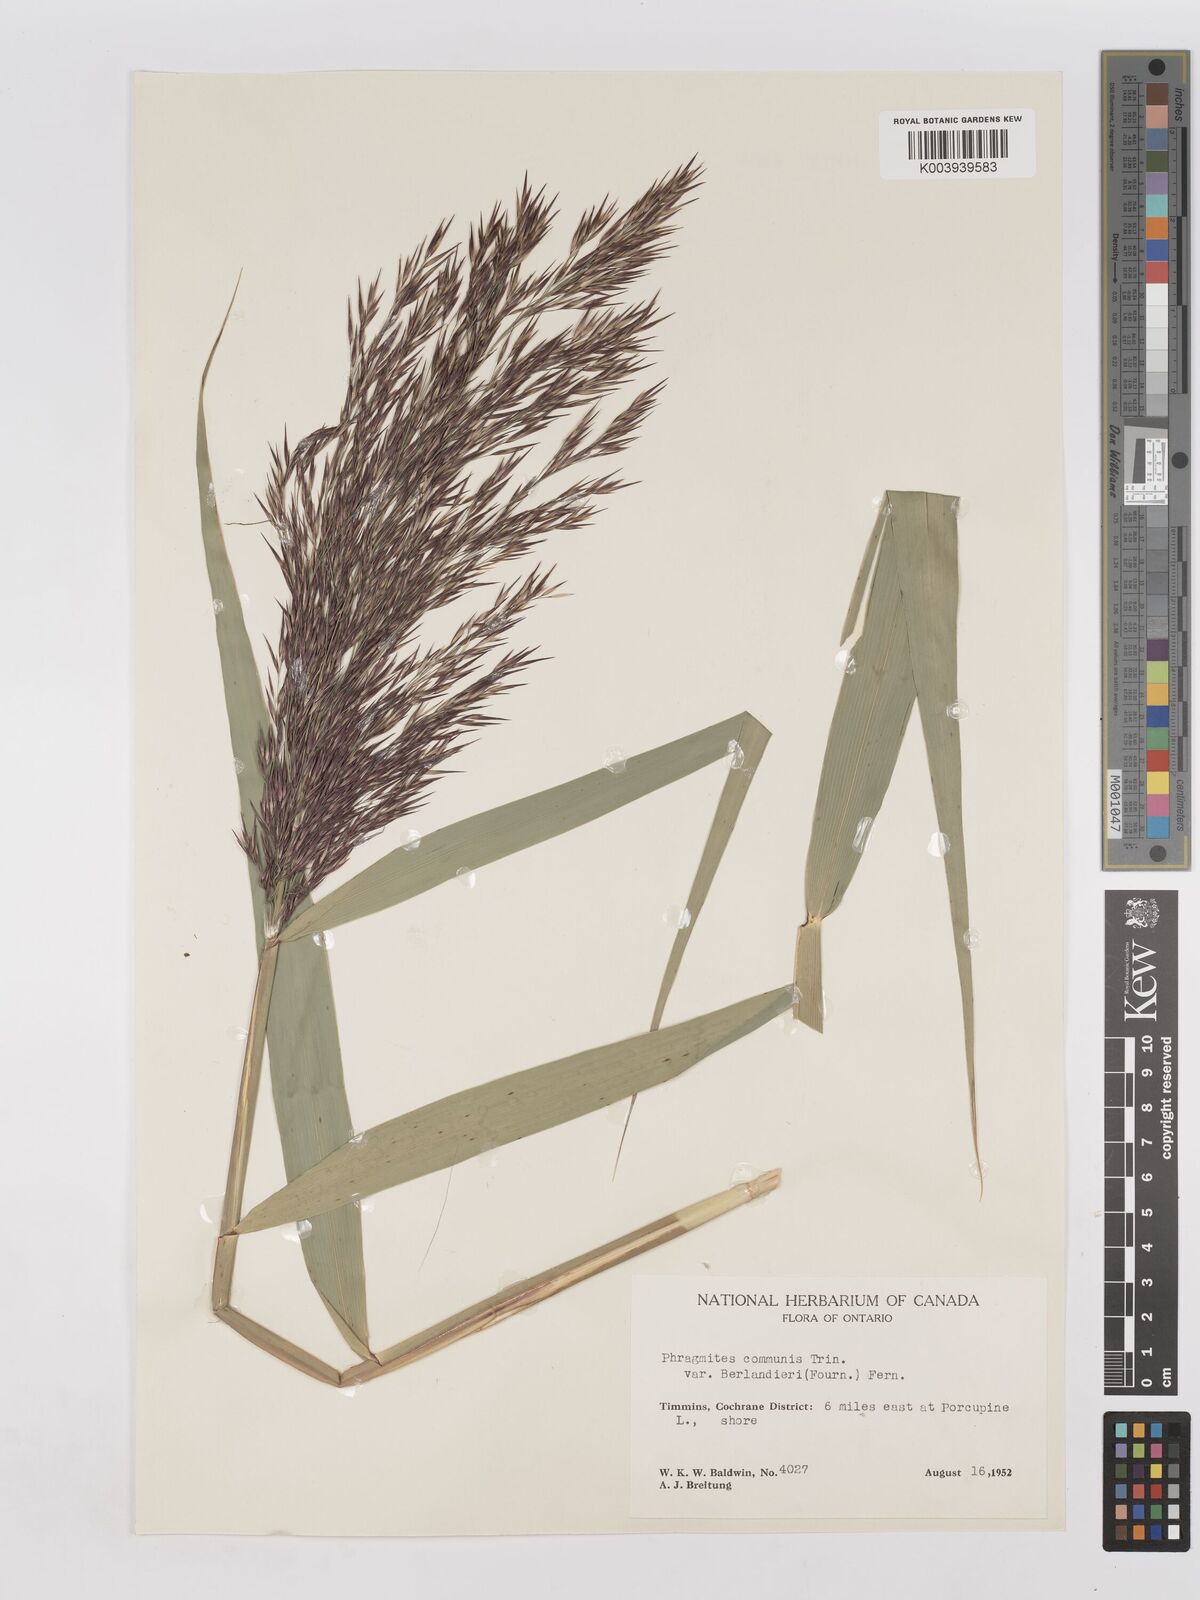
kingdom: Plantae
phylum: Tracheophyta
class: Liliopsida
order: Poales
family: Poaceae
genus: Phragmites
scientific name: Phragmites australis
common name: Common reed
